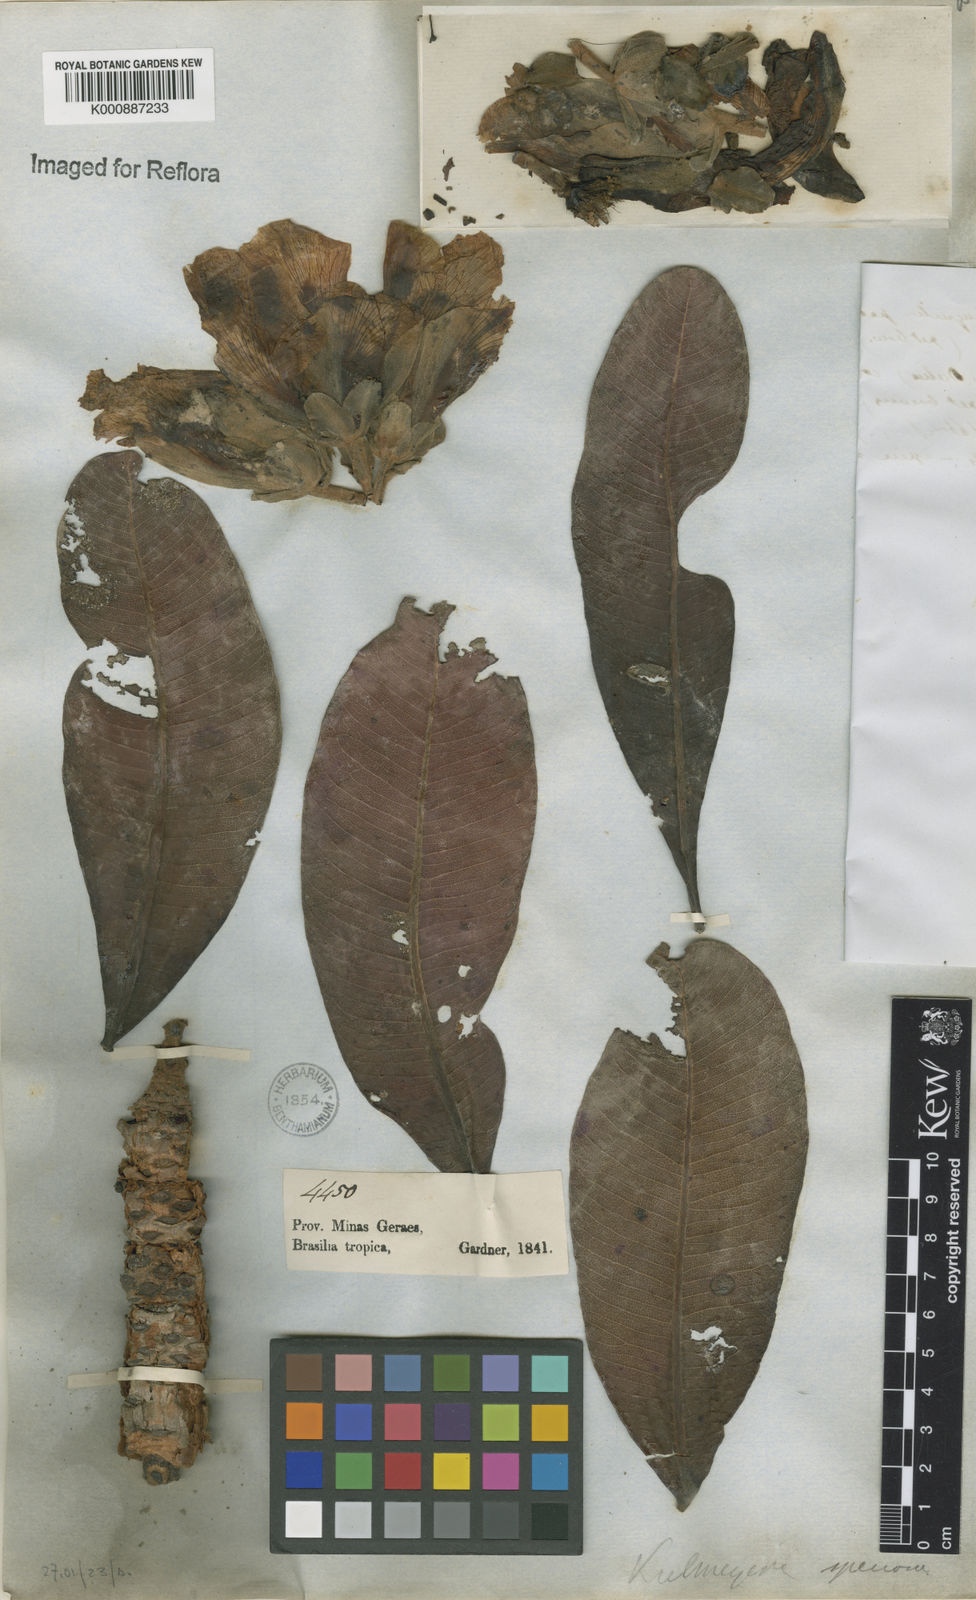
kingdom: Plantae
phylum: Tracheophyta
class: Magnoliopsida
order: Malpighiales
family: Calophyllaceae
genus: Kielmeyera
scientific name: Kielmeyera speciosa
